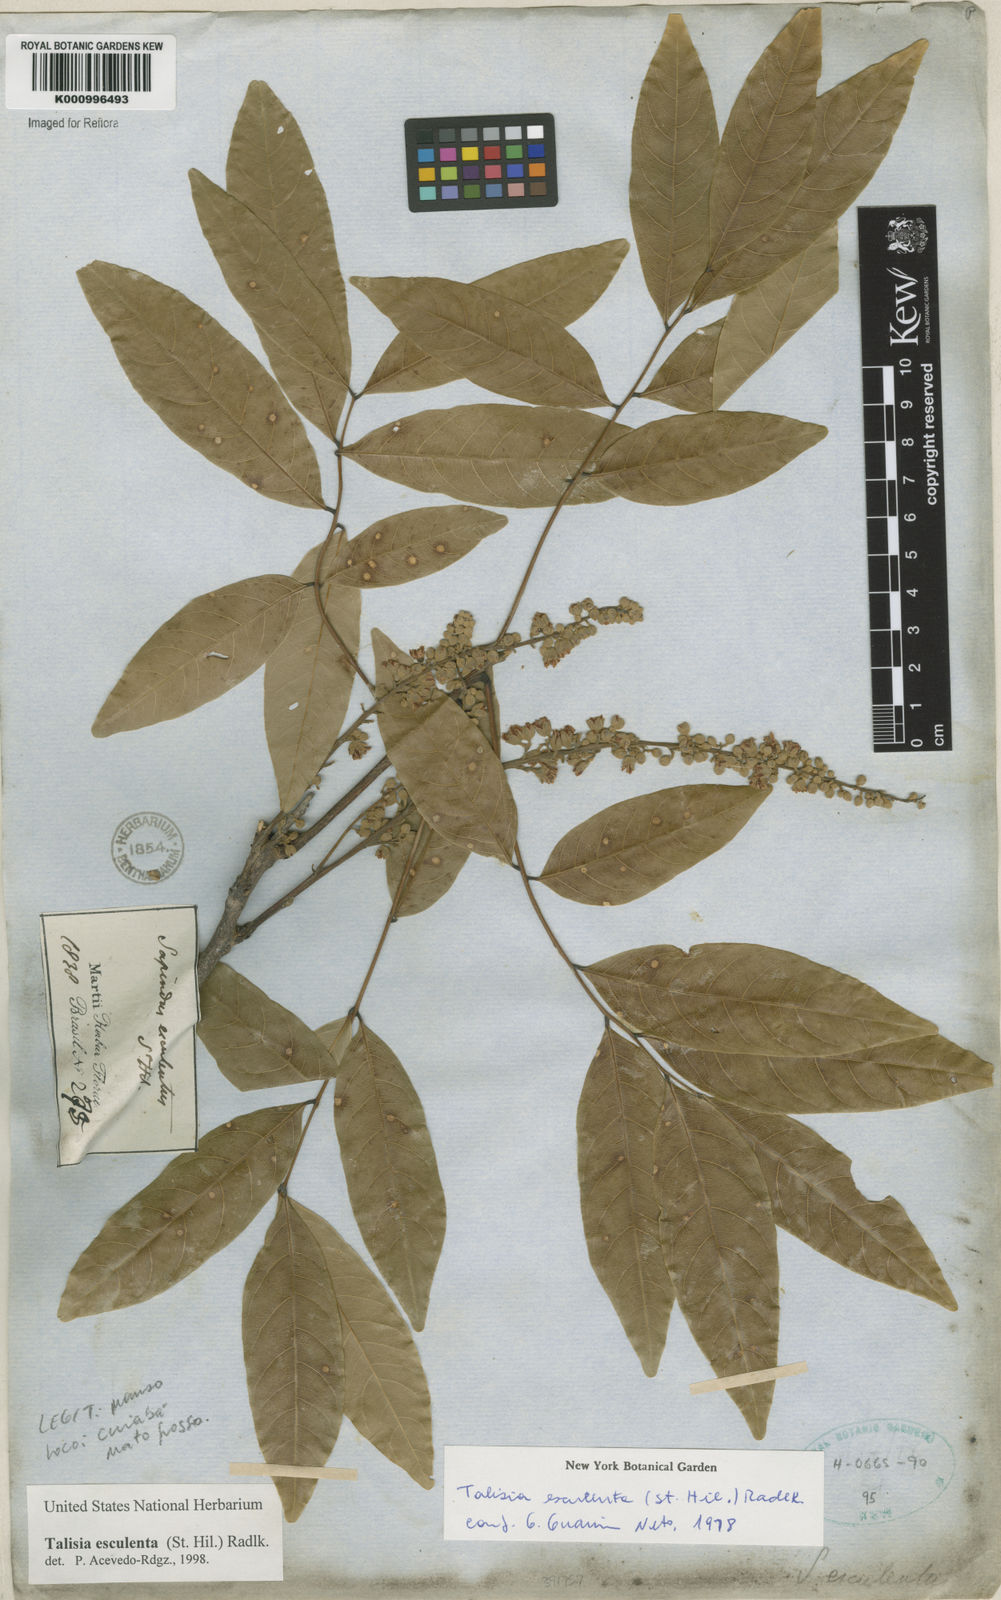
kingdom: Plantae
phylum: Tracheophyta
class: Magnoliopsida
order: Sapindales
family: Sapindaceae
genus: Talisia
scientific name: Talisia
